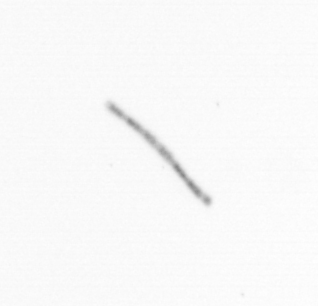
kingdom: Chromista
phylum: Ochrophyta
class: Bacillariophyceae
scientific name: Bacillariophyceae
